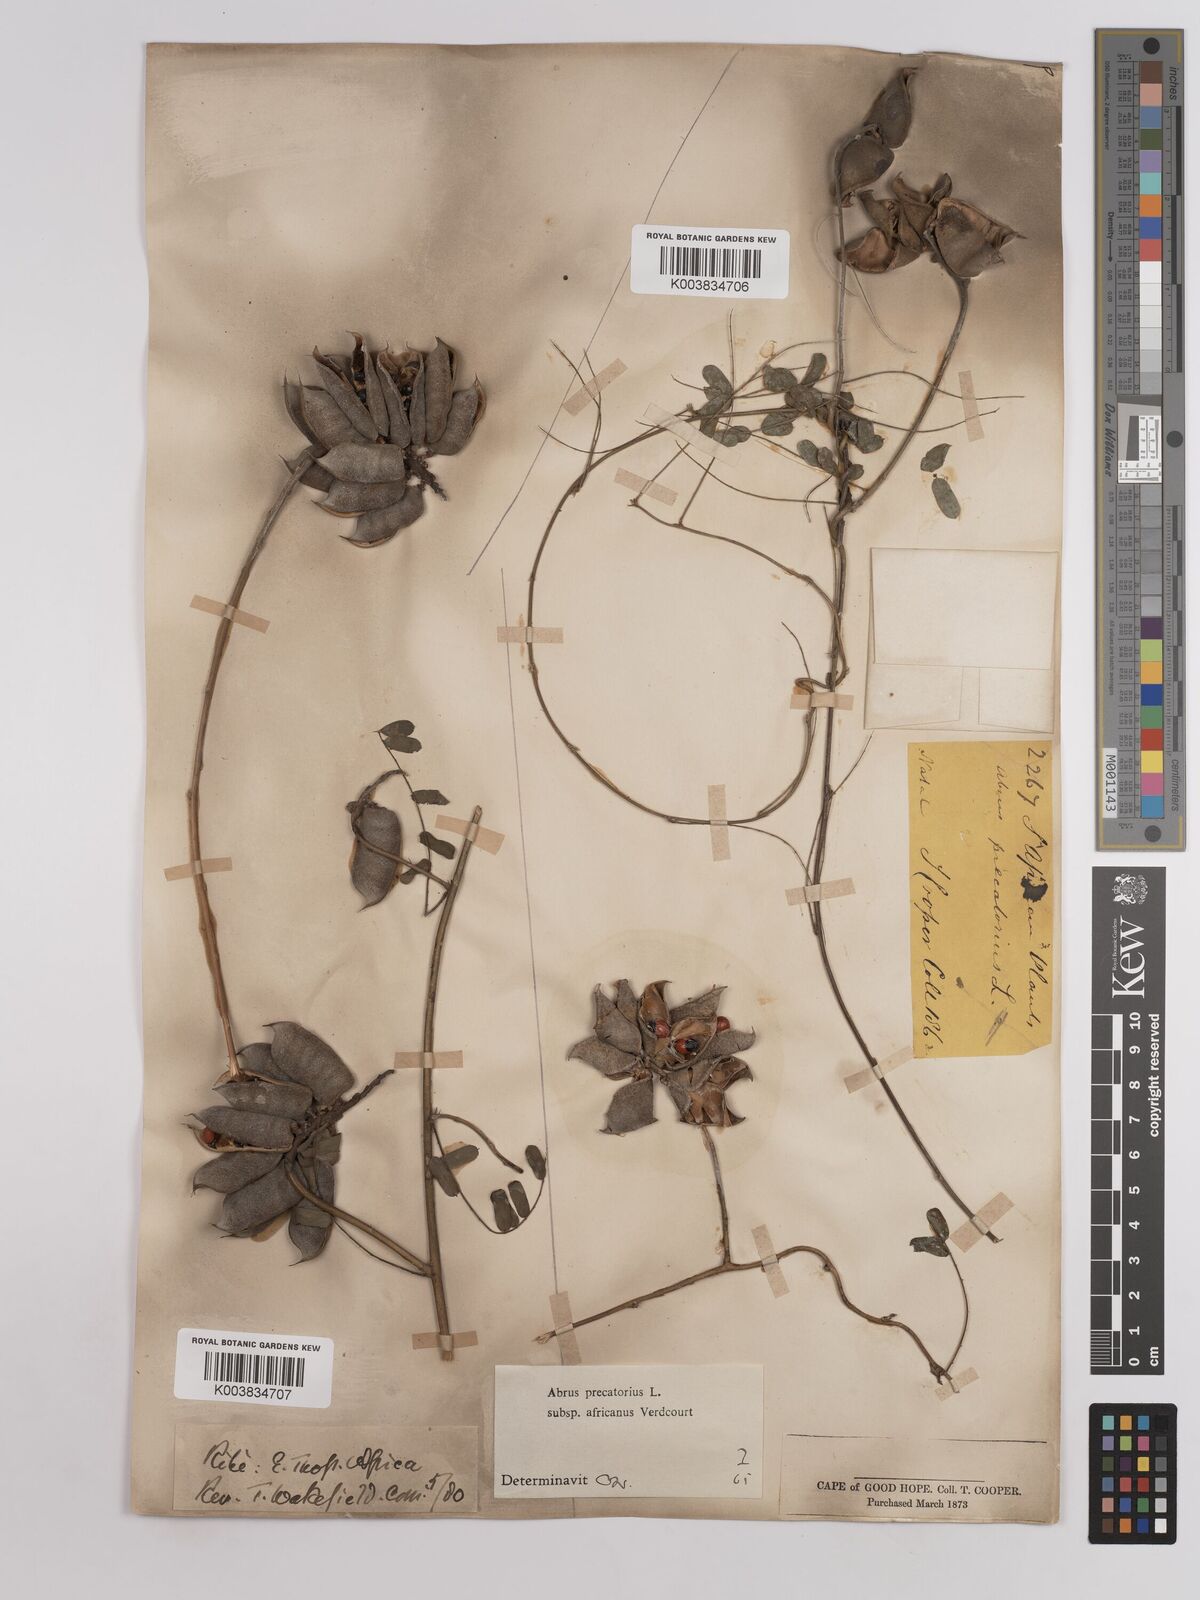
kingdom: Plantae
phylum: Tracheophyta
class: Magnoliopsida
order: Fabales
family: Fabaceae
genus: Abrus
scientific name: Abrus precatorius
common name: Rosarypea
